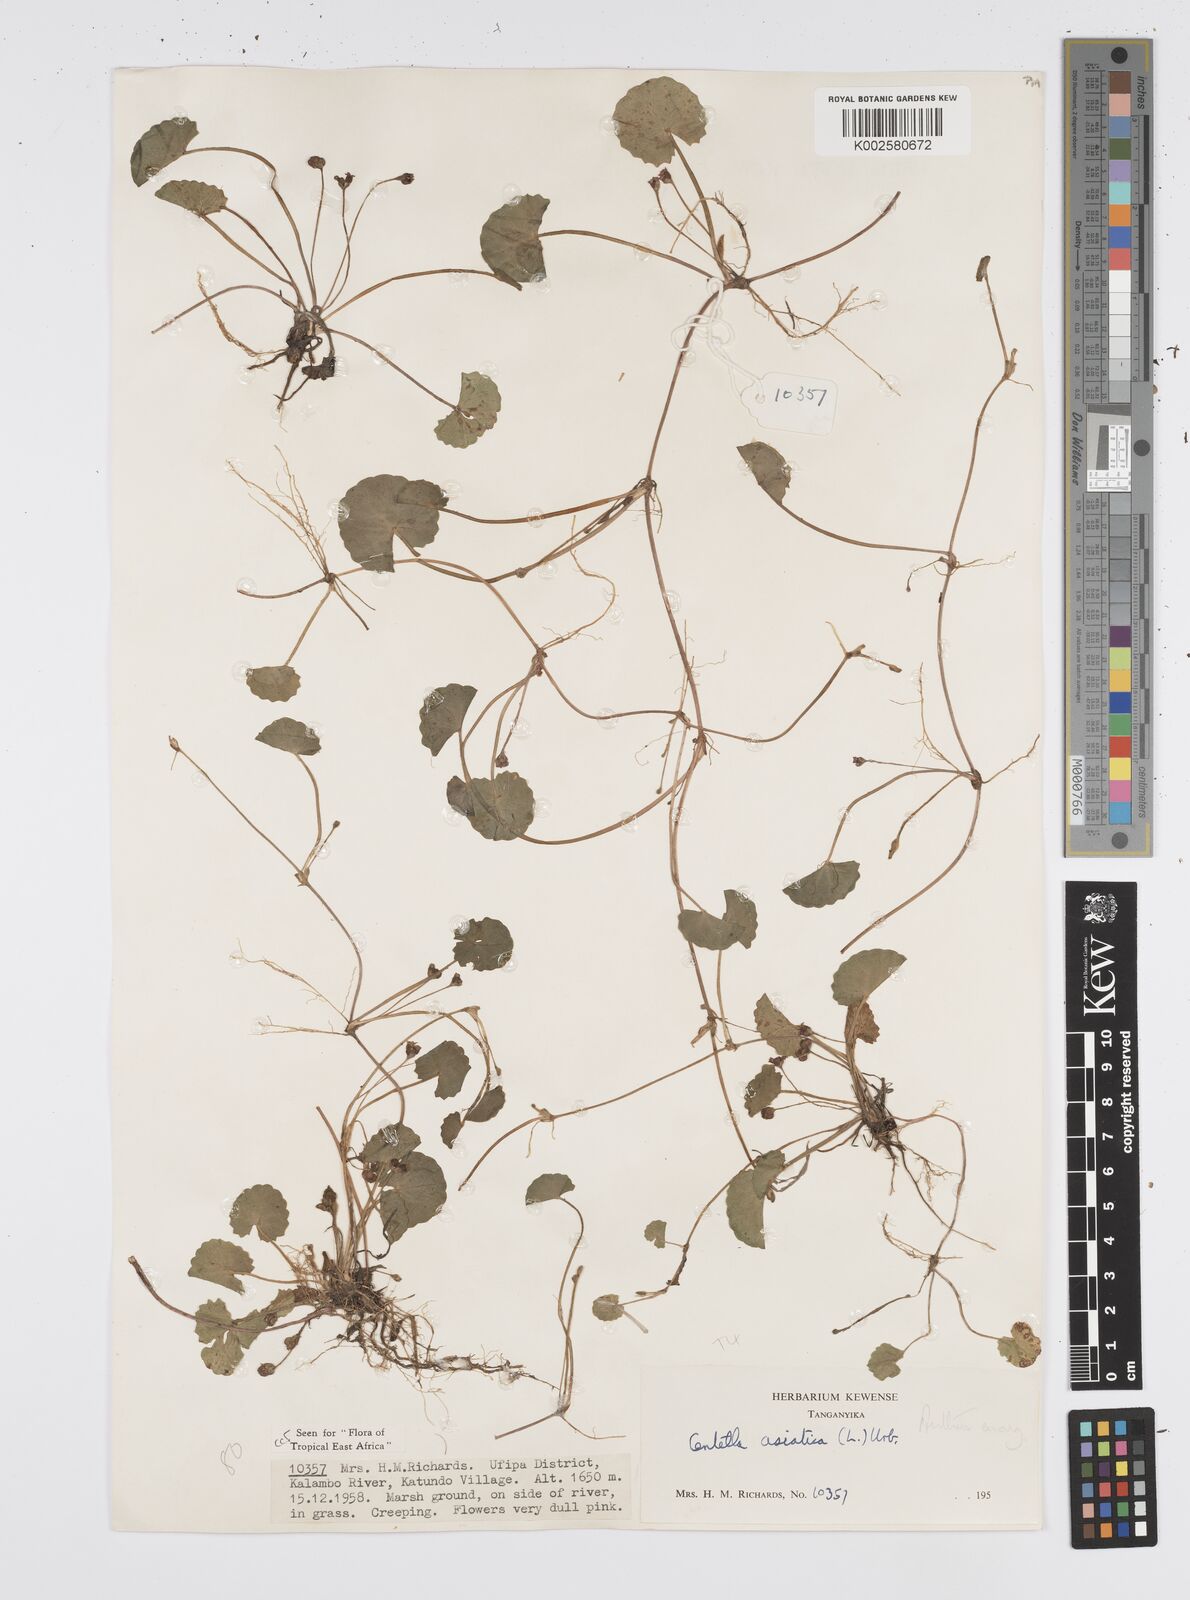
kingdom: Plantae
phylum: Tracheophyta
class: Magnoliopsida
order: Apiales
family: Apiaceae
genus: Centella
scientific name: Centella asiatica
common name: Spadeleaf
